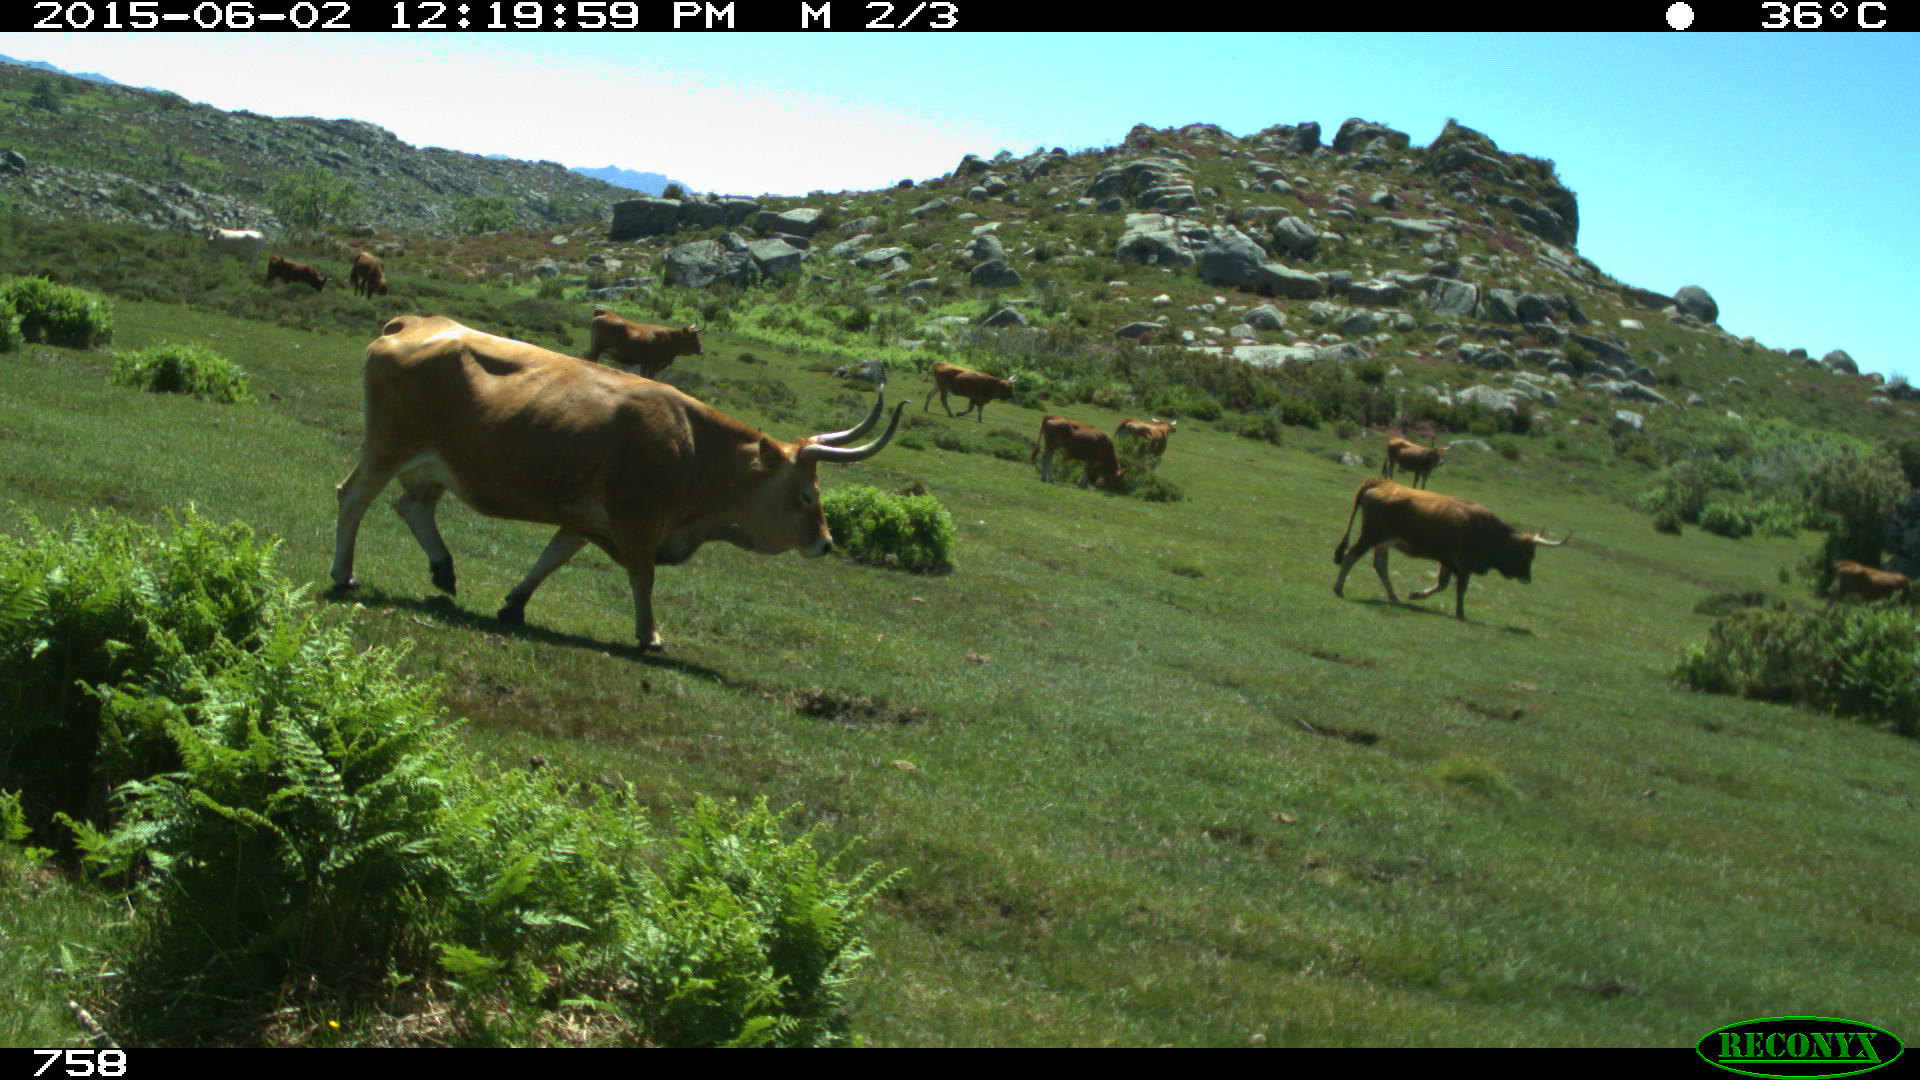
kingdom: Animalia
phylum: Chordata
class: Mammalia
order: Artiodactyla
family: Bovidae
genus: Bos
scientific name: Bos taurus
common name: Domesticated cattle
